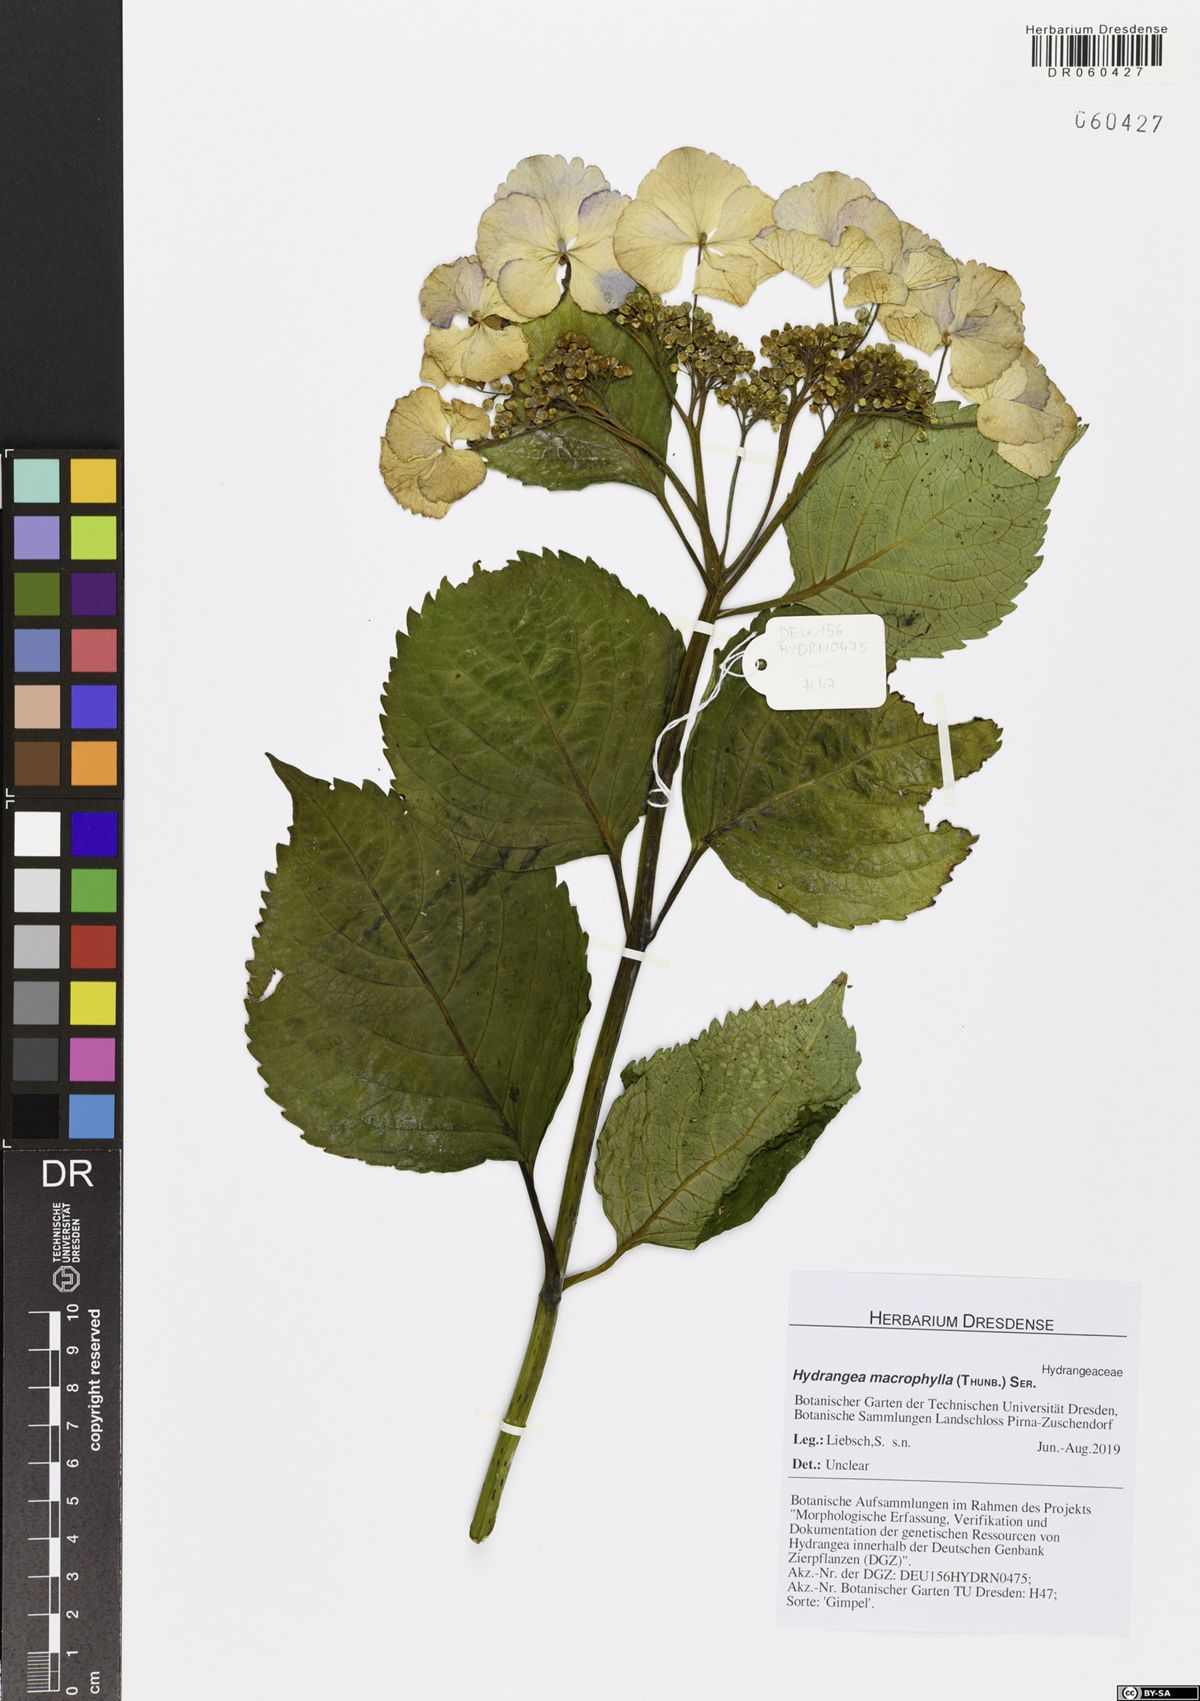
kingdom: Plantae
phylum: Tracheophyta
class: Magnoliopsida
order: Cornales
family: Hydrangeaceae
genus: Hydrangea
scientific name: Hydrangea macrophylla
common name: Hydrangea
